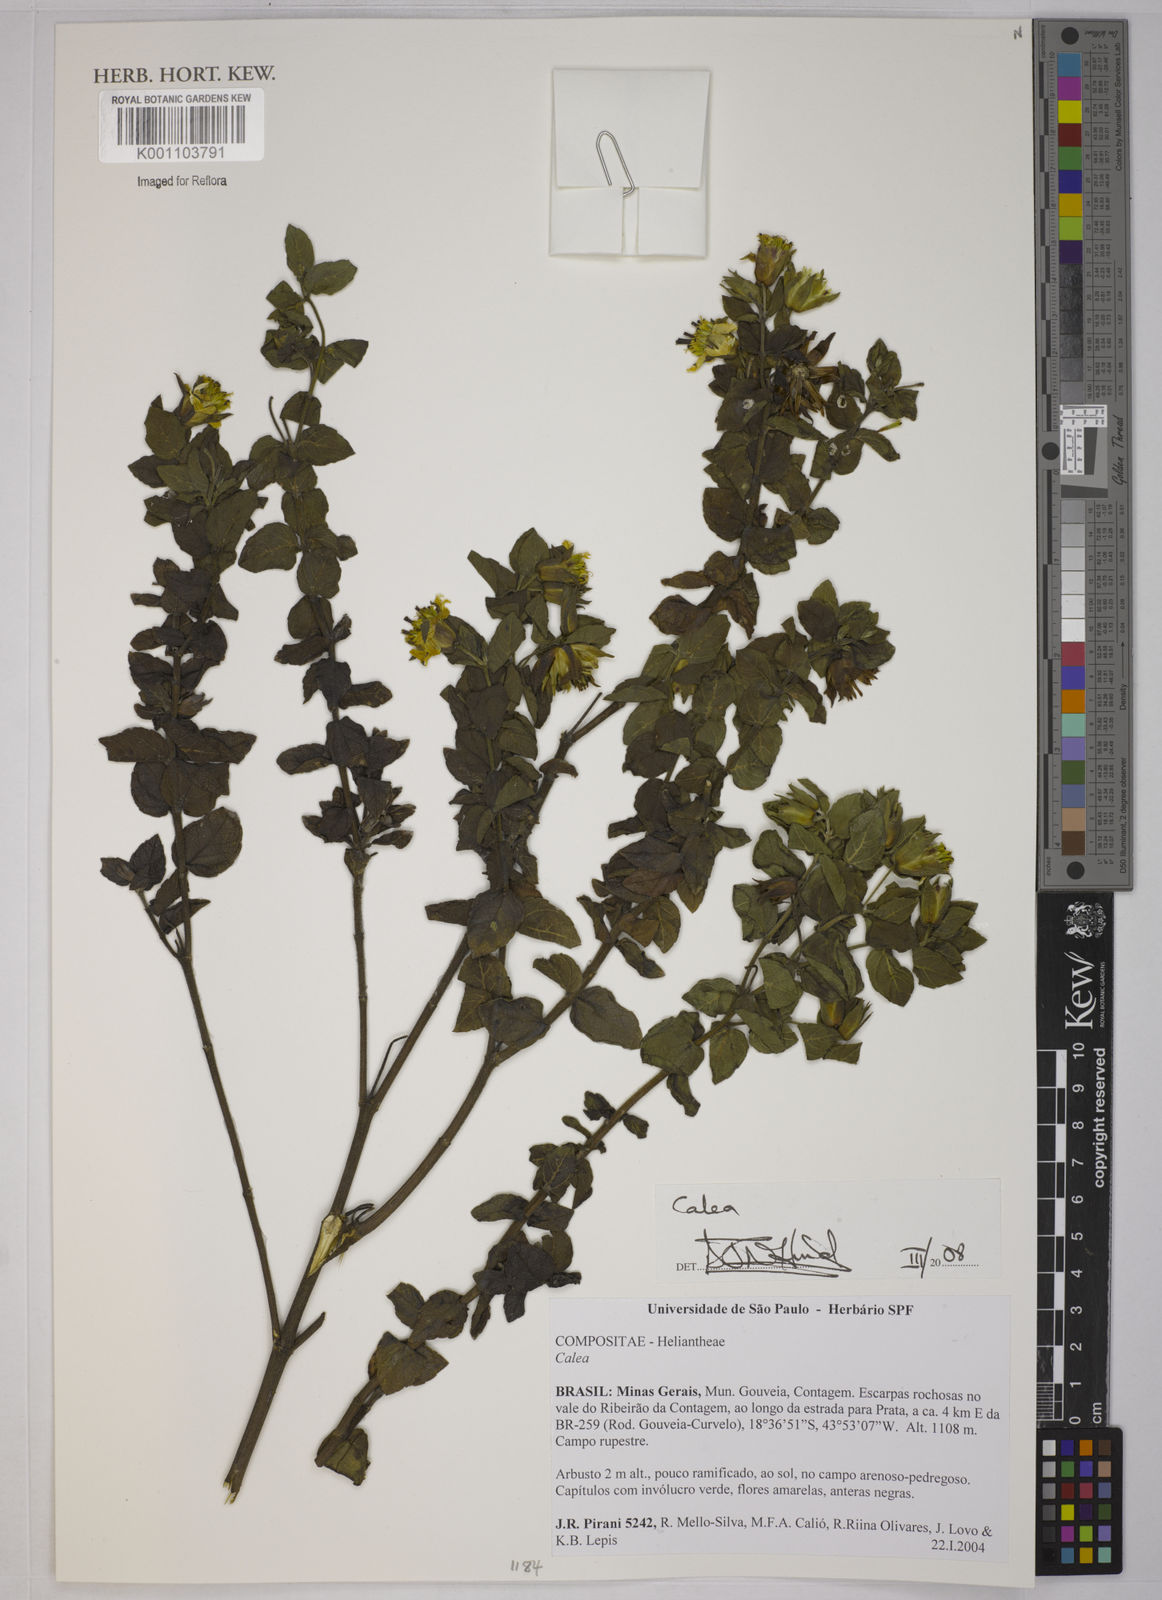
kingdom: Plantae
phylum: Tracheophyta
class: Magnoliopsida
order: Asterales
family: Asteraceae
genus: Calea
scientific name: Calea
